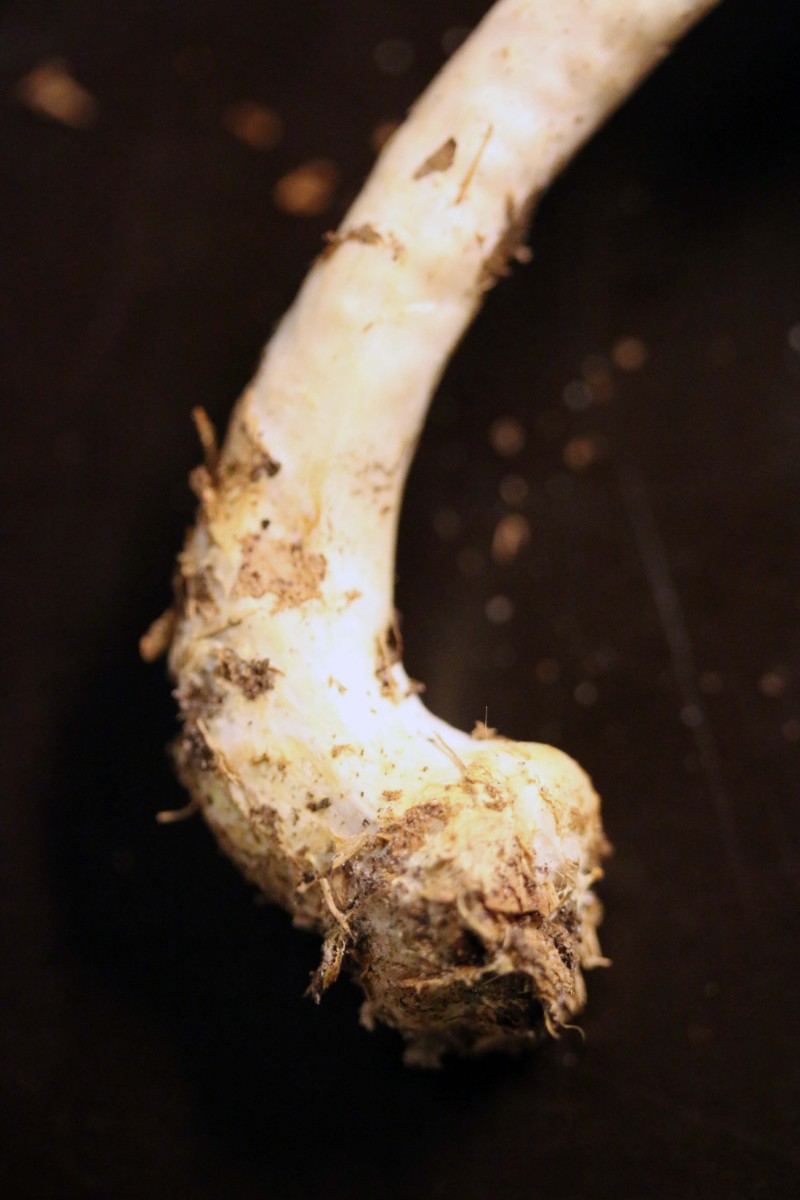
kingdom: Fungi
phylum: Basidiomycota
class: Agaricomycetes
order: Agaricales
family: Agaricaceae
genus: Agaricus
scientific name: Agaricus sylvicola
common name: skiveknoldet champignon
